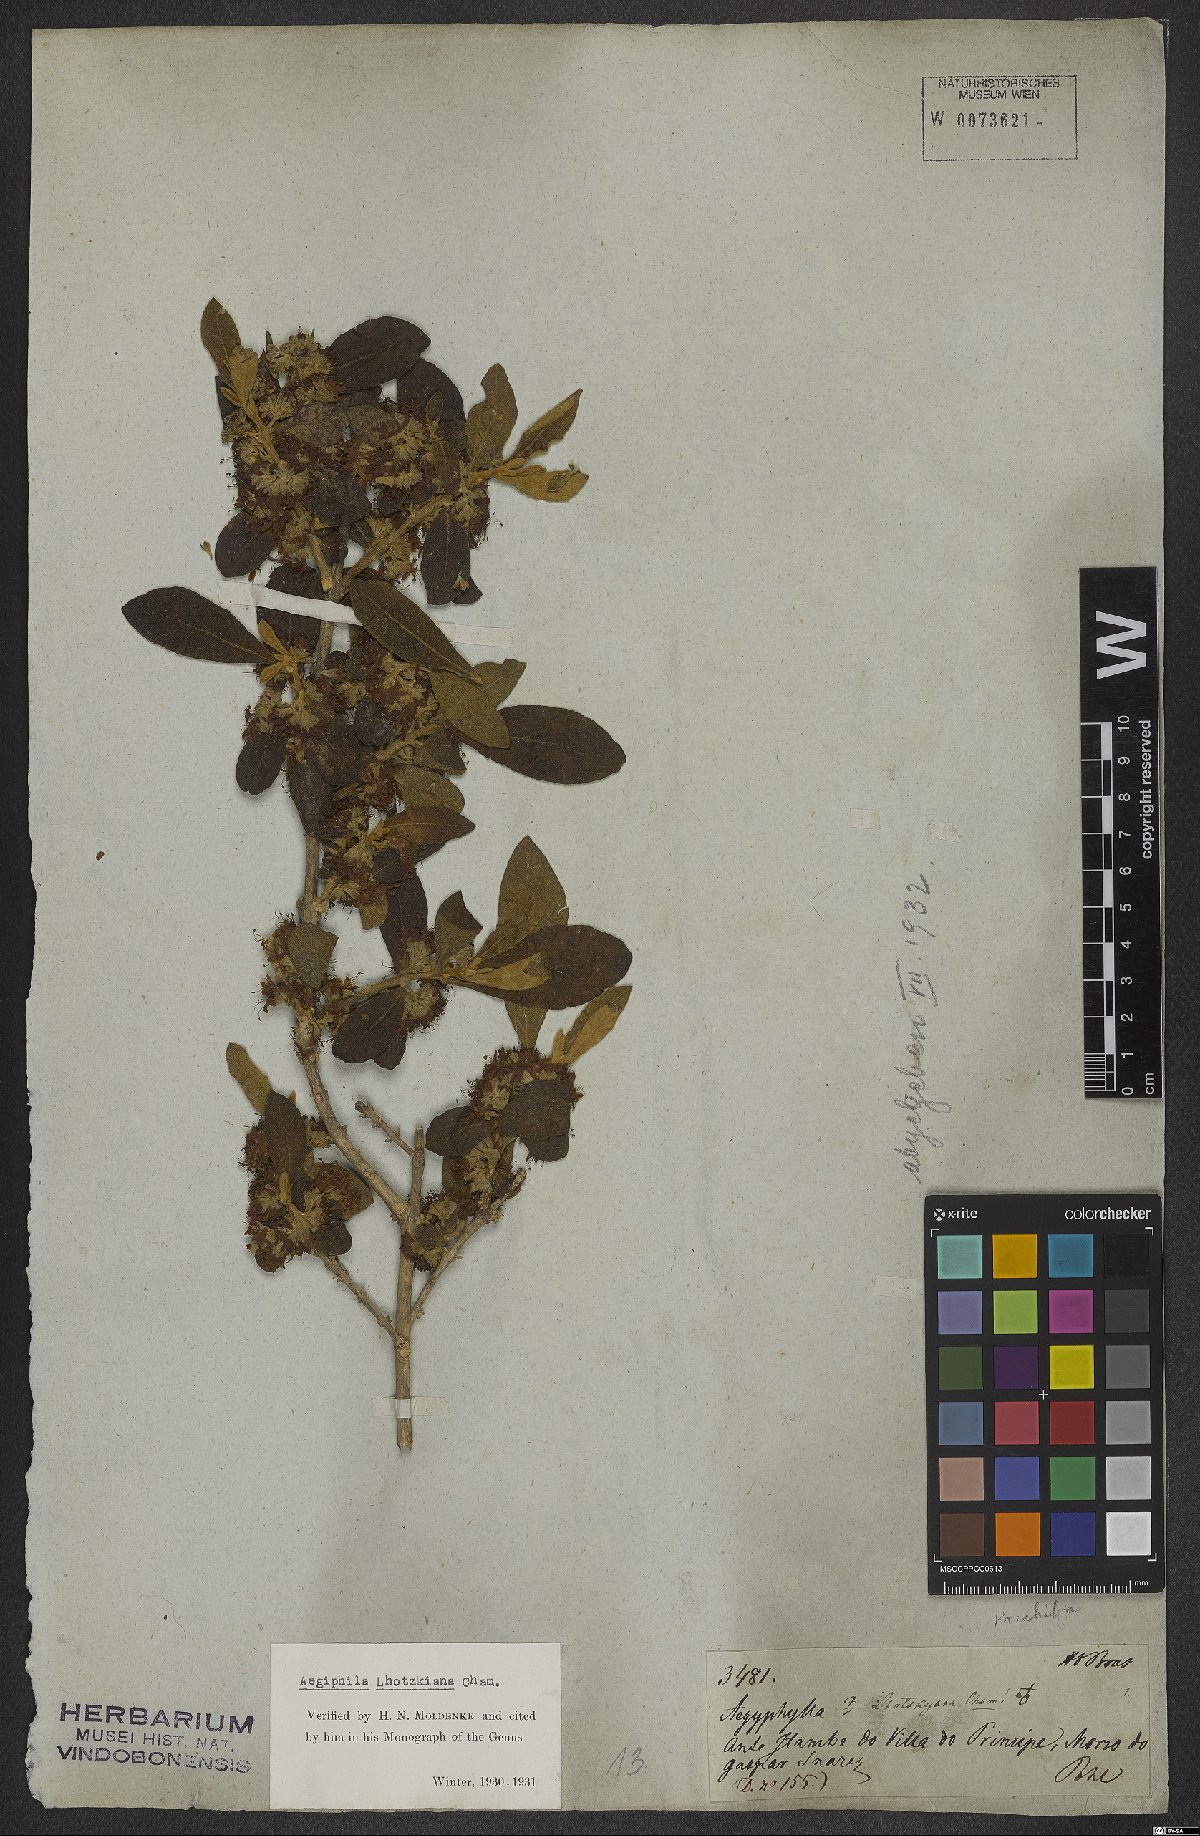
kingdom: Plantae
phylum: Tracheophyta
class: Magnoliopsida
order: Lamiales
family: Lamiaceae
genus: Aegiphila
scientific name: Aegiphila lhotskiana
